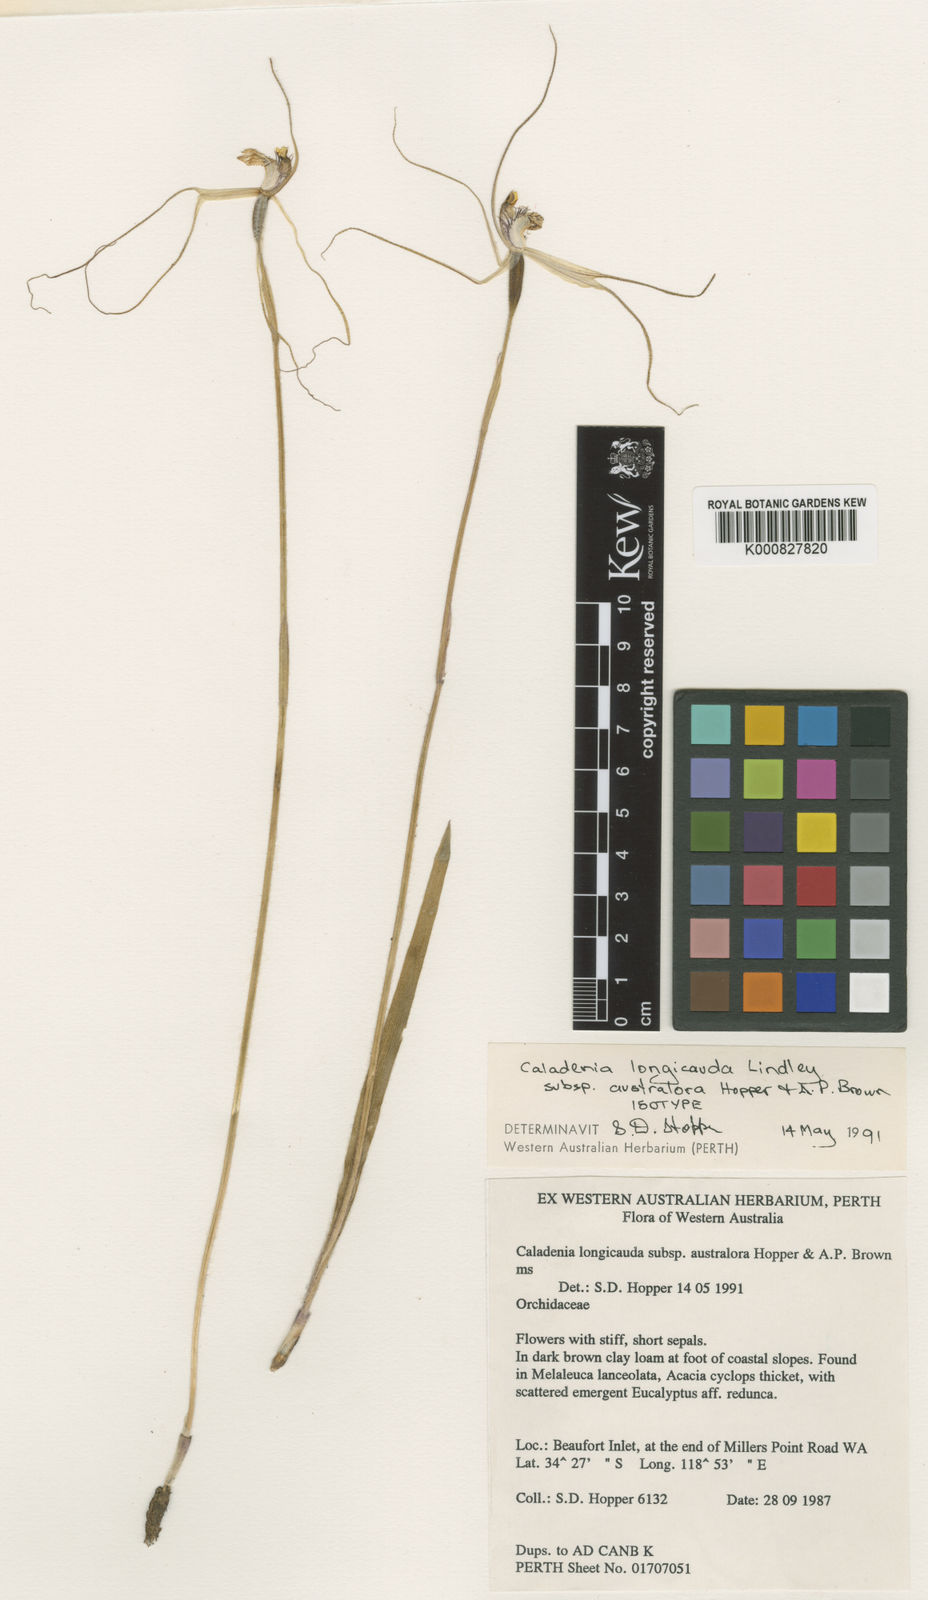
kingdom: Plantae
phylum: Tracheophyta
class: Liliopsida
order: Asparagales
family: Orchidaceae
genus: Caladenia
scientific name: Caladenia longicauda
